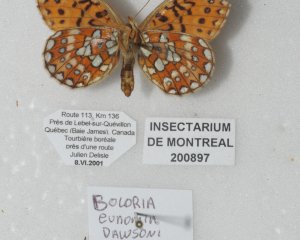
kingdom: Animalia
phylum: Arthropoda
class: Insecta
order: Lepidoptera
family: Nymphalidae
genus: Boloria
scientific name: Boloria eunomia
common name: Bog Fritillary
